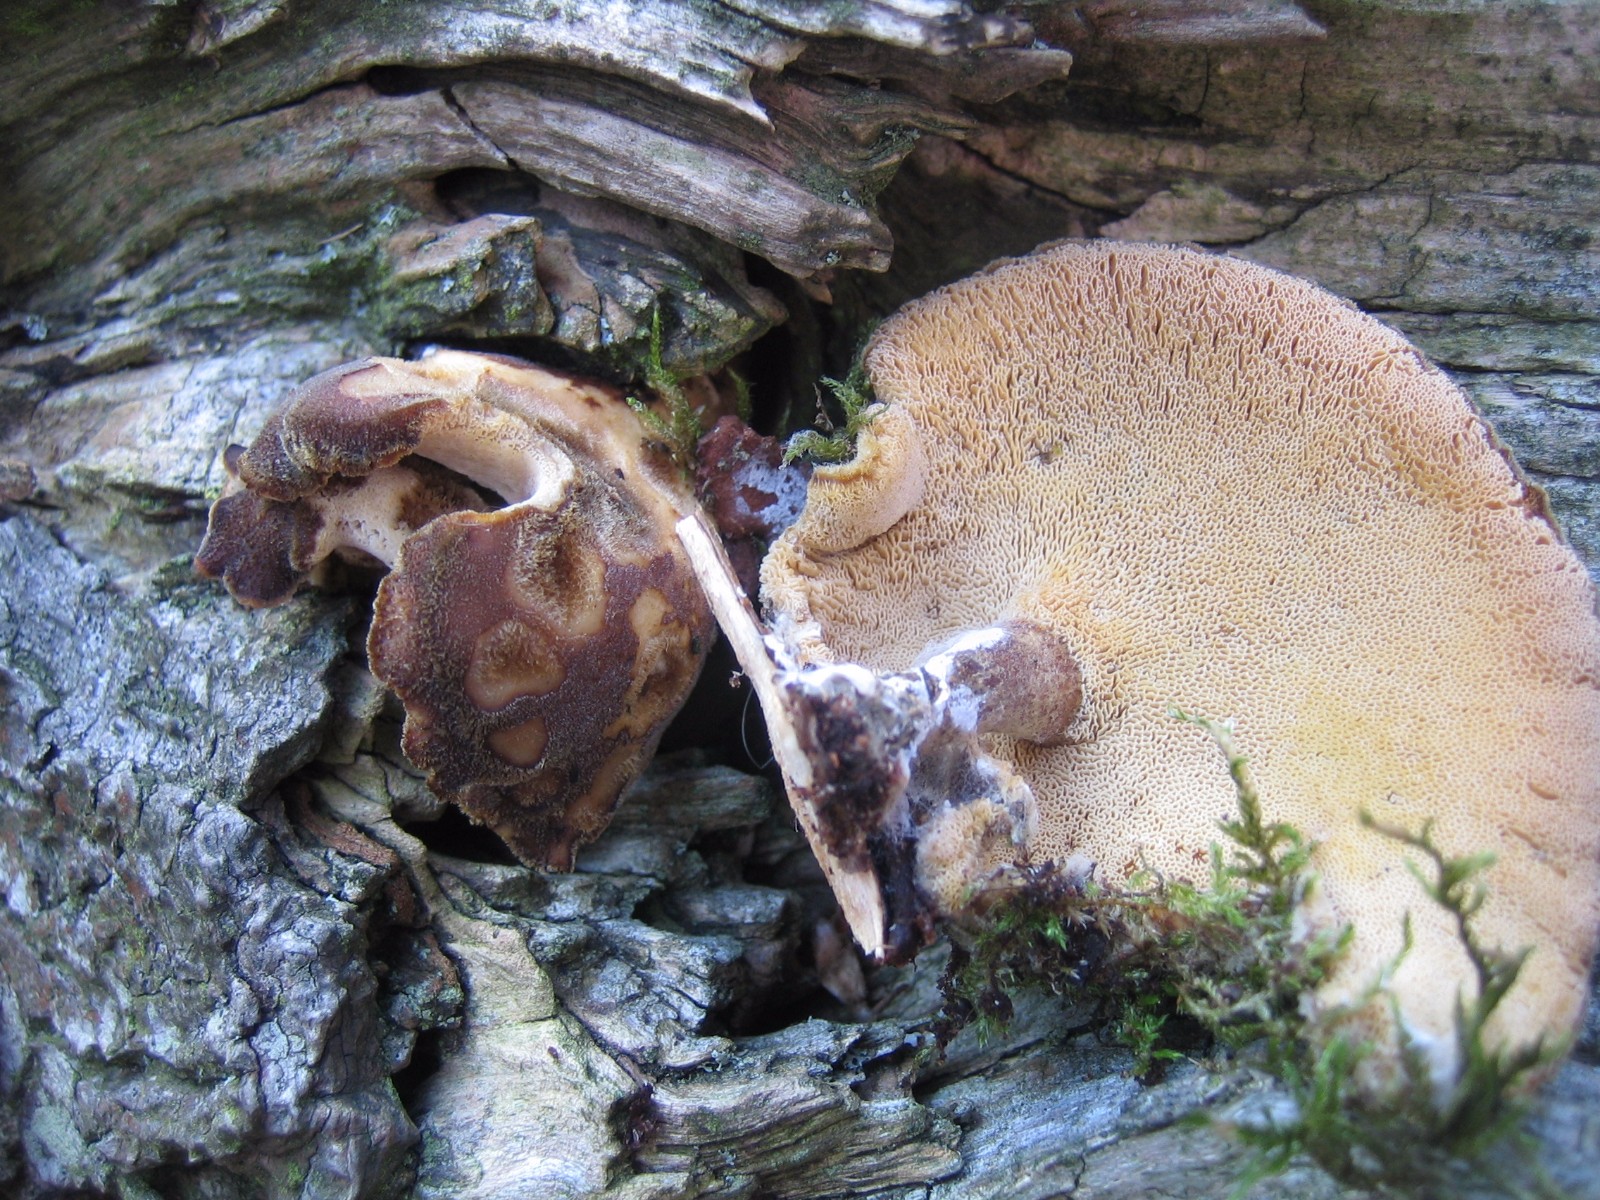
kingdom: Fungi
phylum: Basidiomycota
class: Agaricomycetes
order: Polyporales
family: Polyporaceae
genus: Lentinus
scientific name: Lentinus brumalis
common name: vinter-stilkporesvamp
